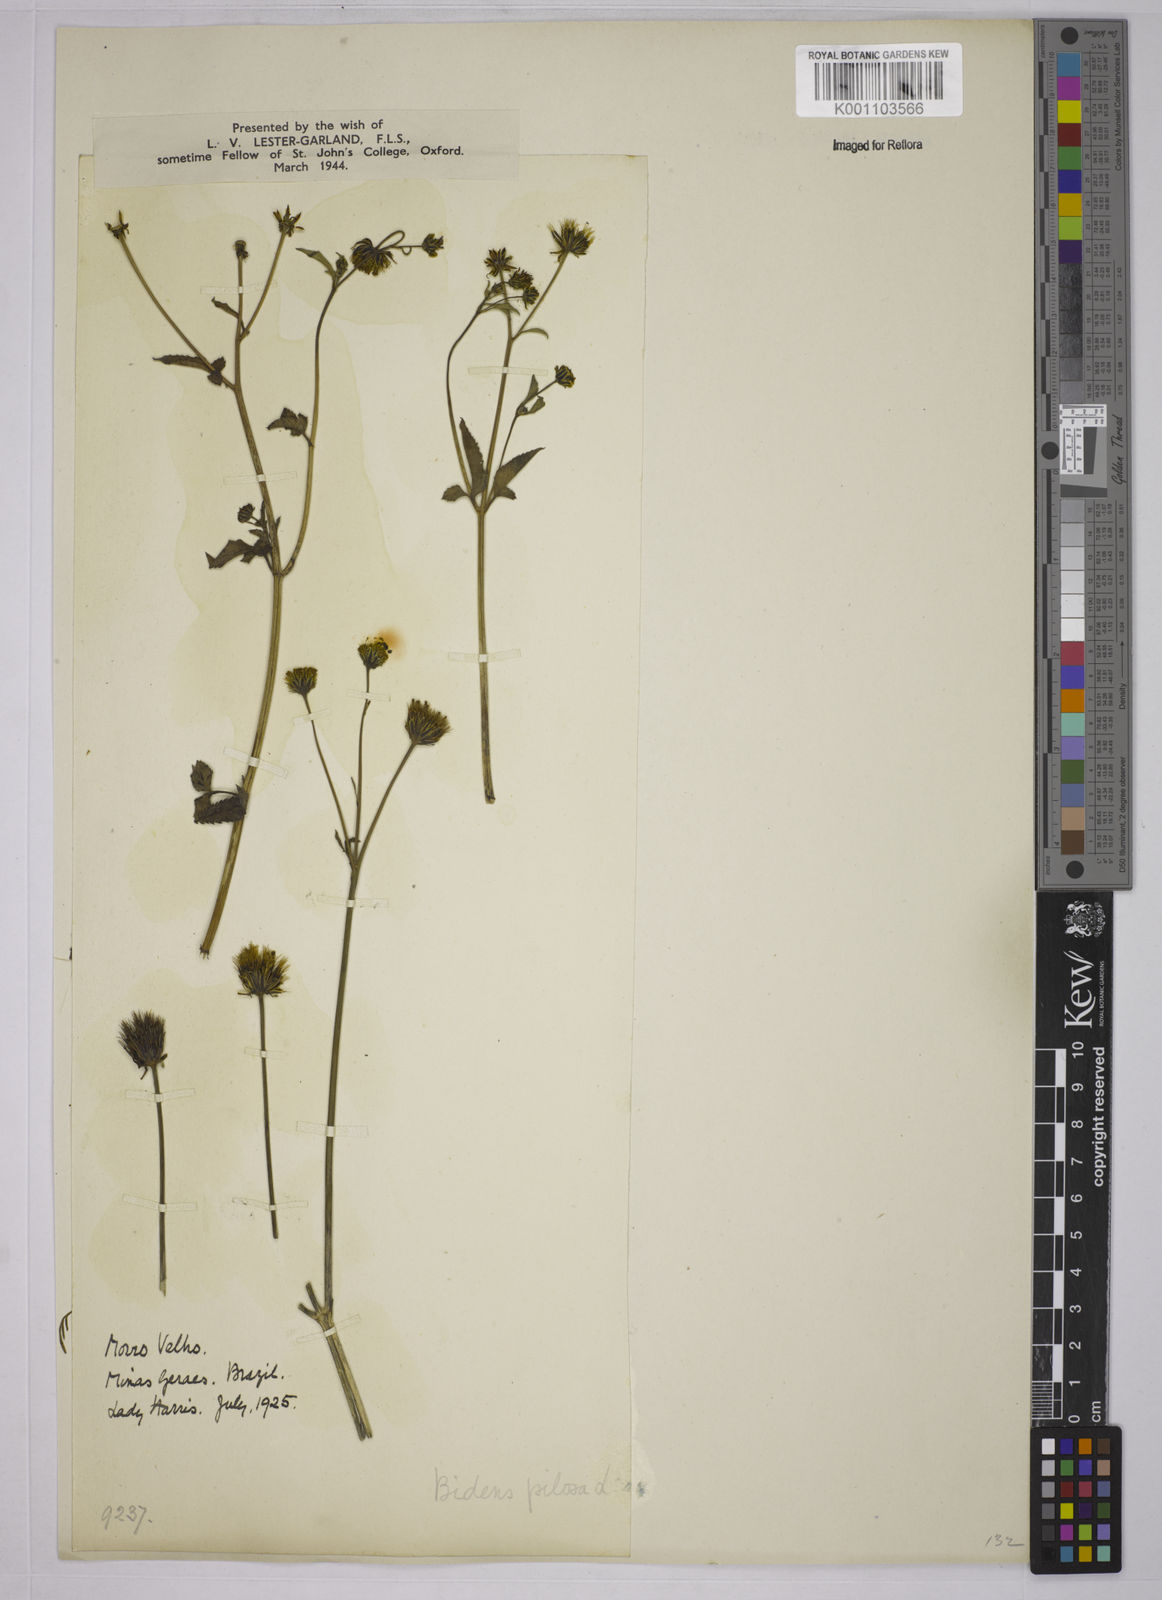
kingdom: Plantae
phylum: Tracheophyta
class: Magnoliopsida
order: Asterales
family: Asteraceae
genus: Bidens
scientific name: Bidens pilosa
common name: Black-jack
